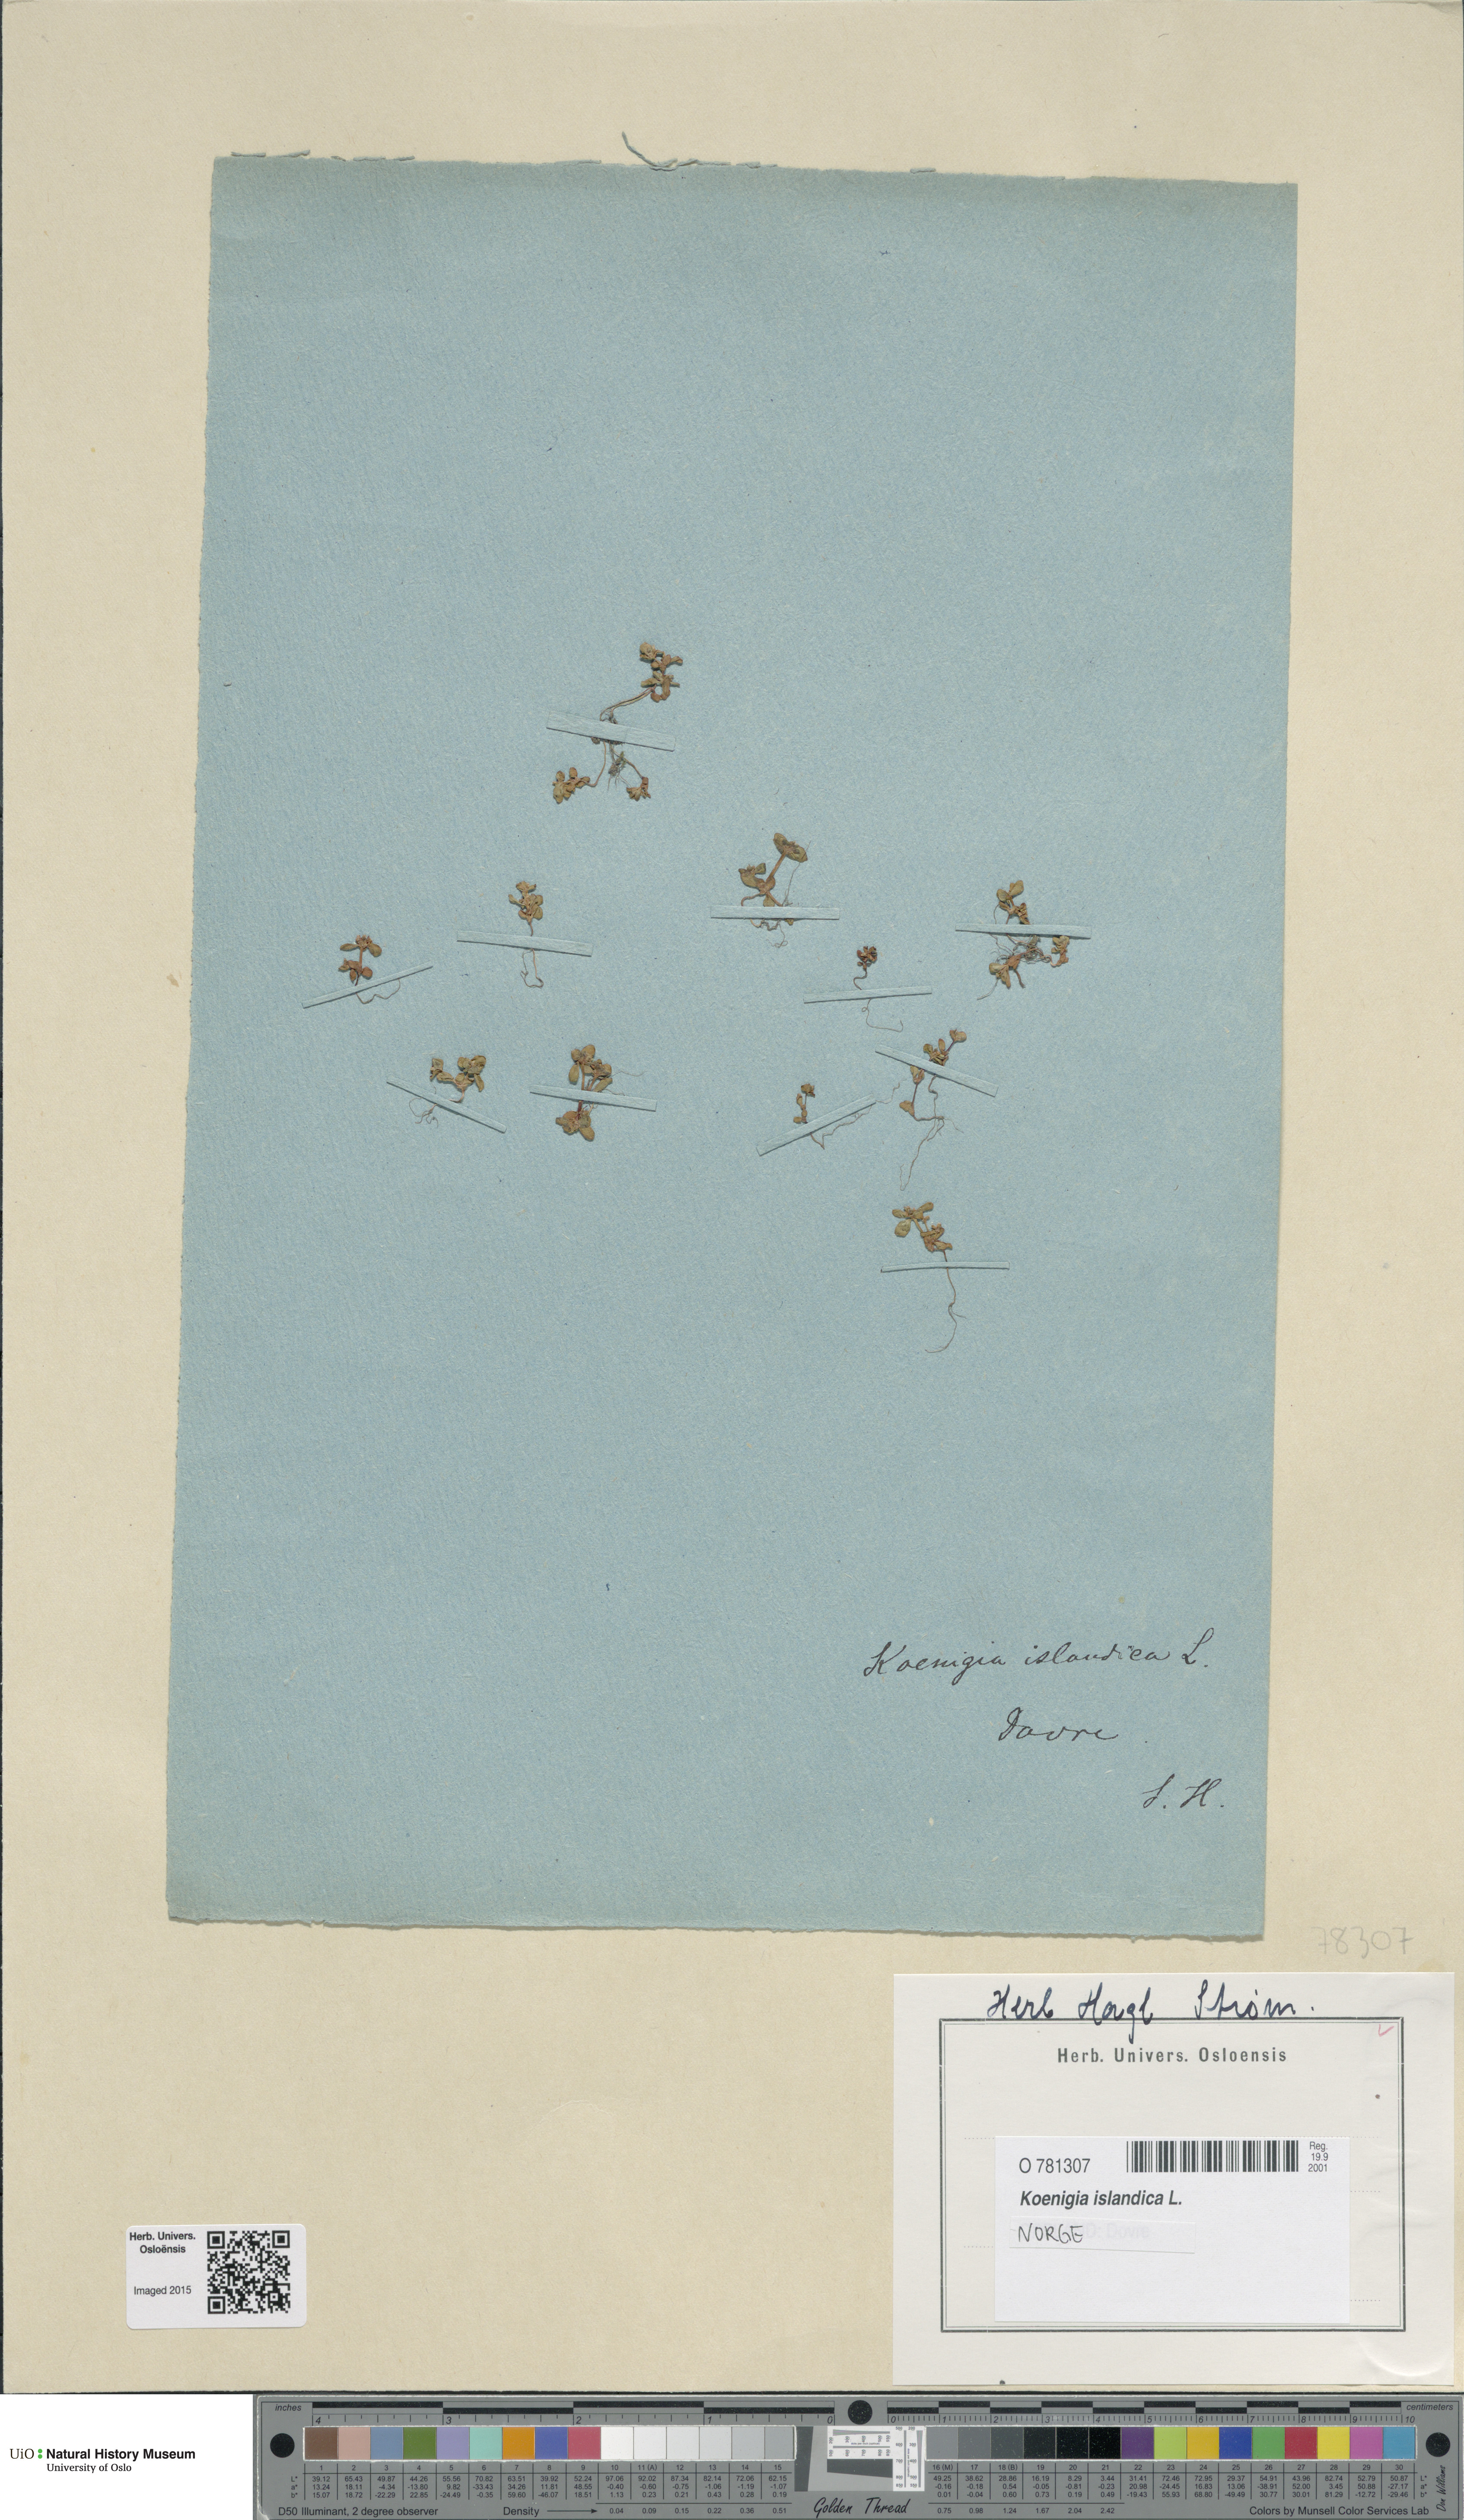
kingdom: Plantae
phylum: Tracheophyta
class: Magnoliopsida
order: Caryophyllales
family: Polygonaceae
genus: Koenigia
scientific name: Koenigia islandica
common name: Iceland-purslane
